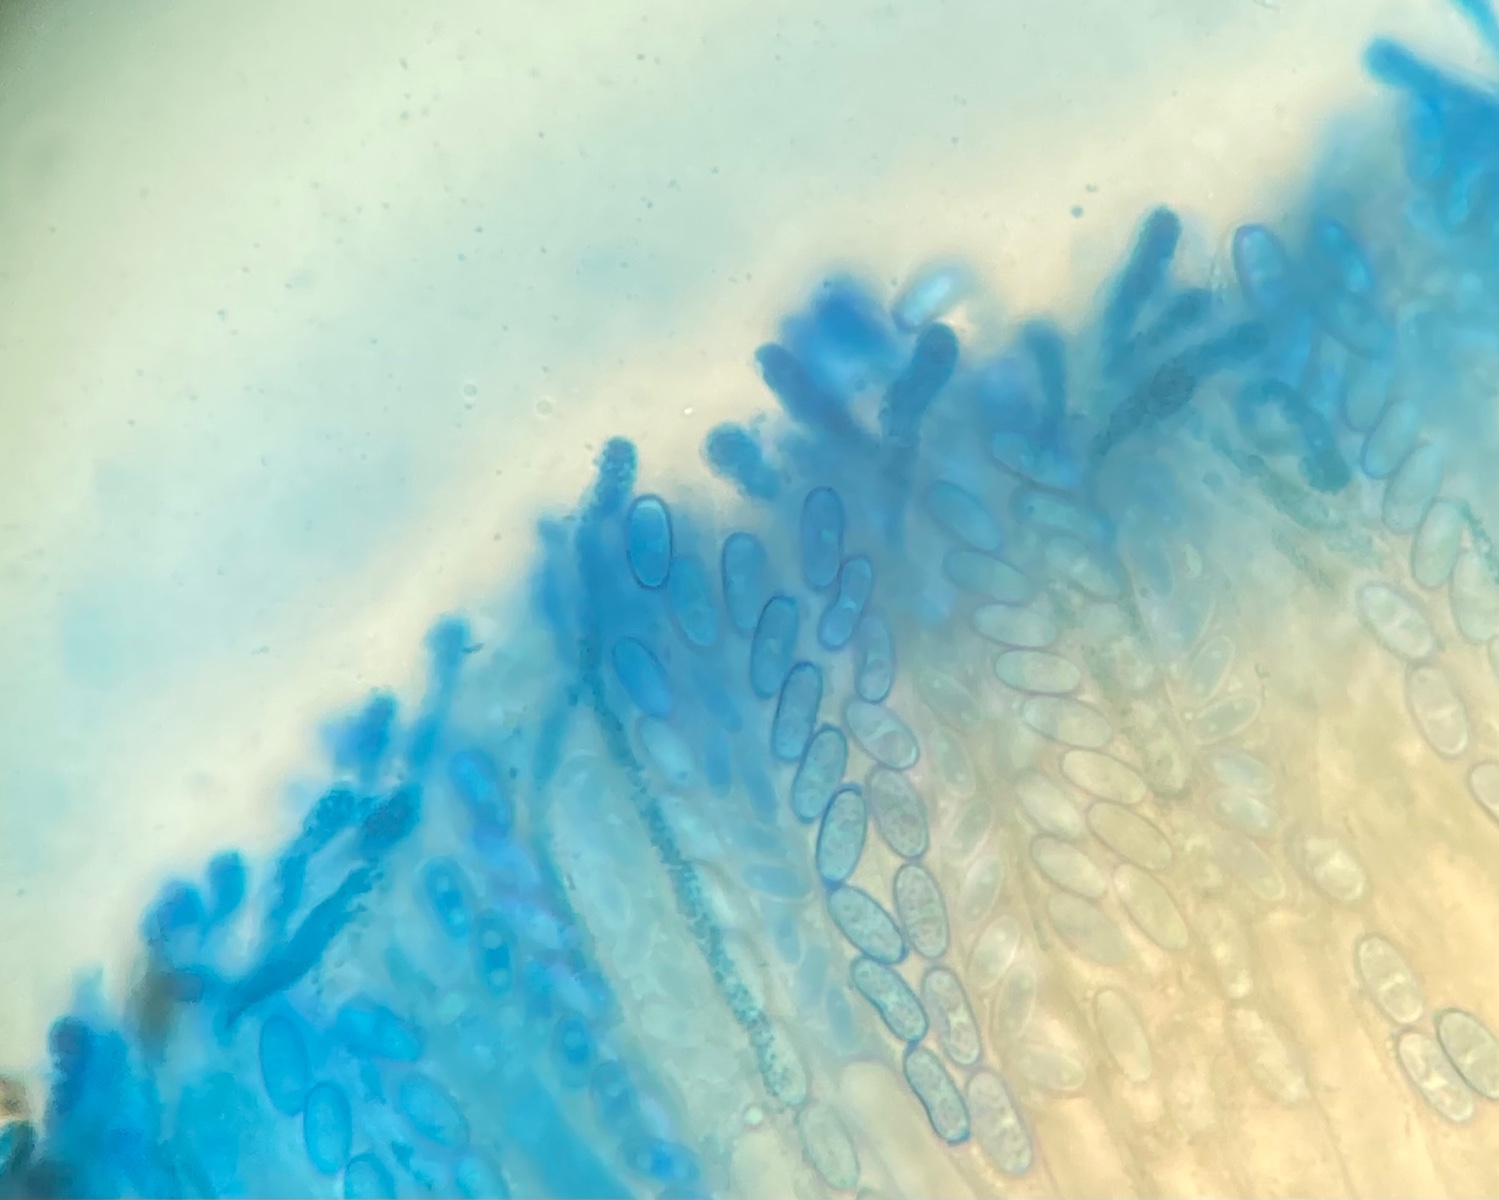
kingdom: Fungi
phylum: Ascomycota
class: Pezizomycetes
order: Pezizales
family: Pezizaceae
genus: Daleomyces
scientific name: Daleomyces petersii
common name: brandplet-bægersvamp
